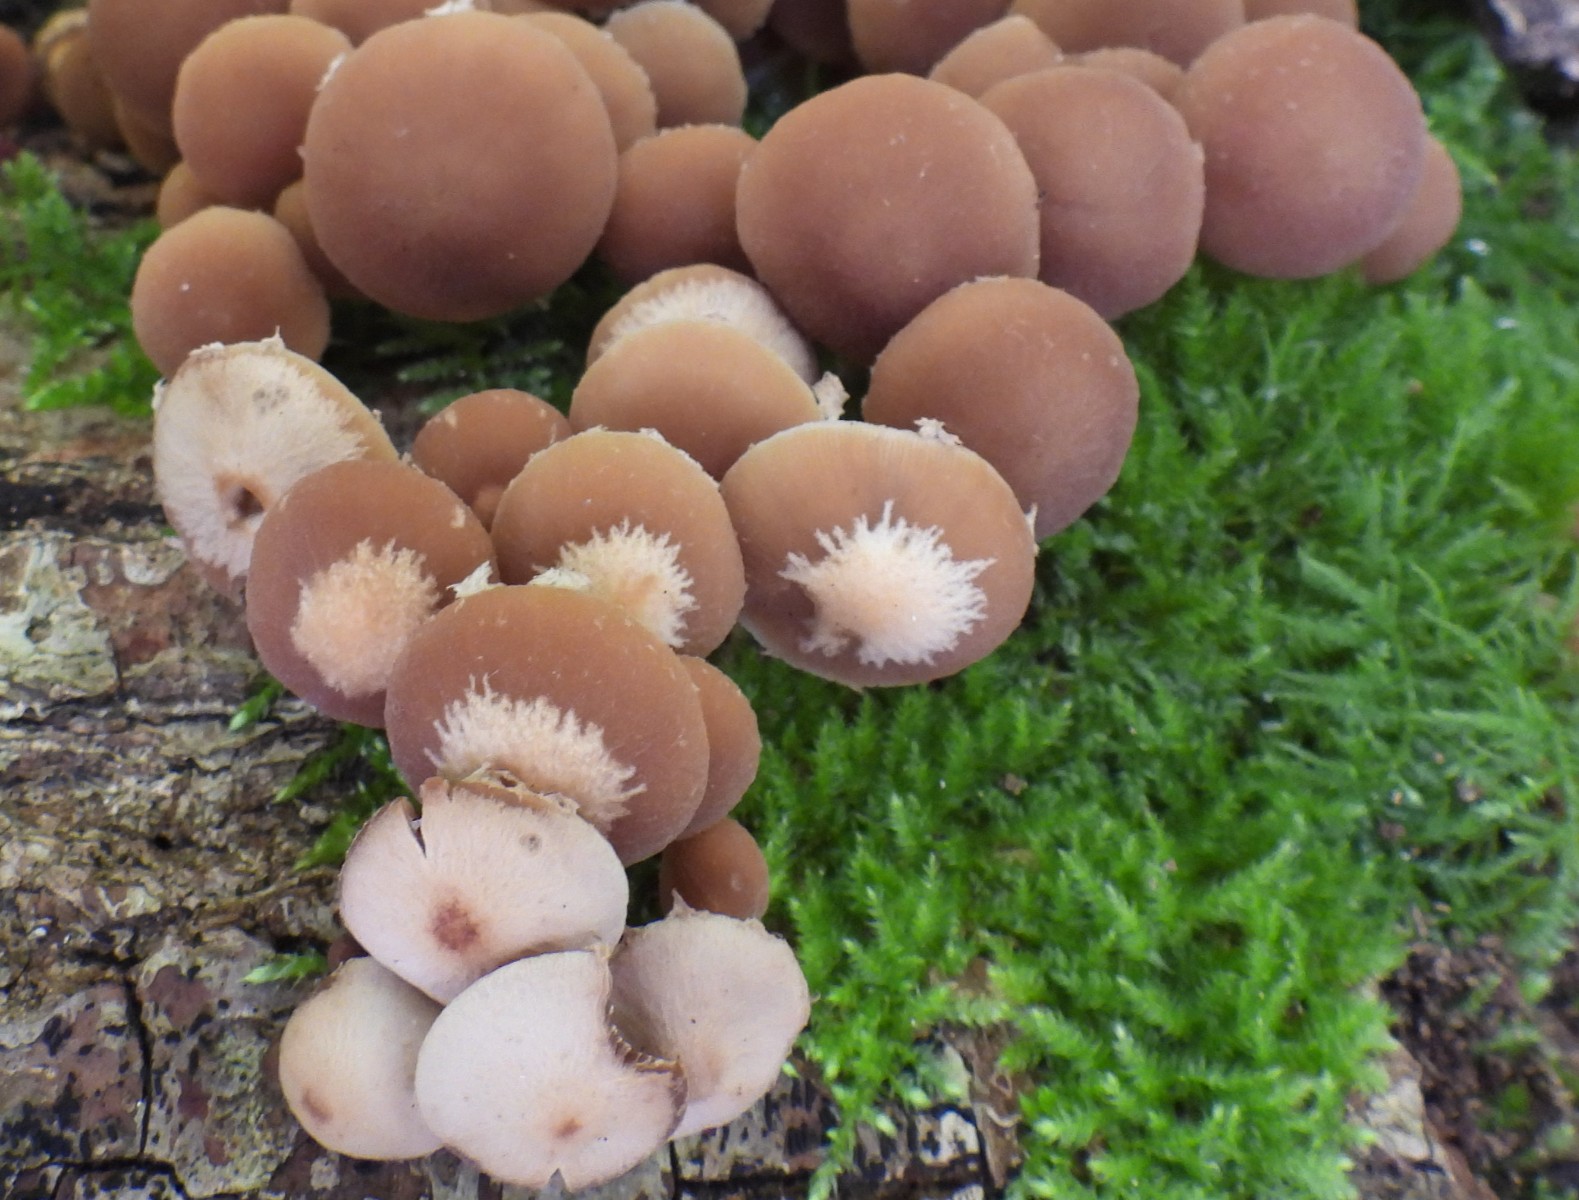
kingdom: Fungi
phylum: Basidiomycota
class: Agaricomycetes
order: Agaricales
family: Psathyrellaceae
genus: Psathyrella
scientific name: Psathyrella piluliformis
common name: lysstokket mørkhat
